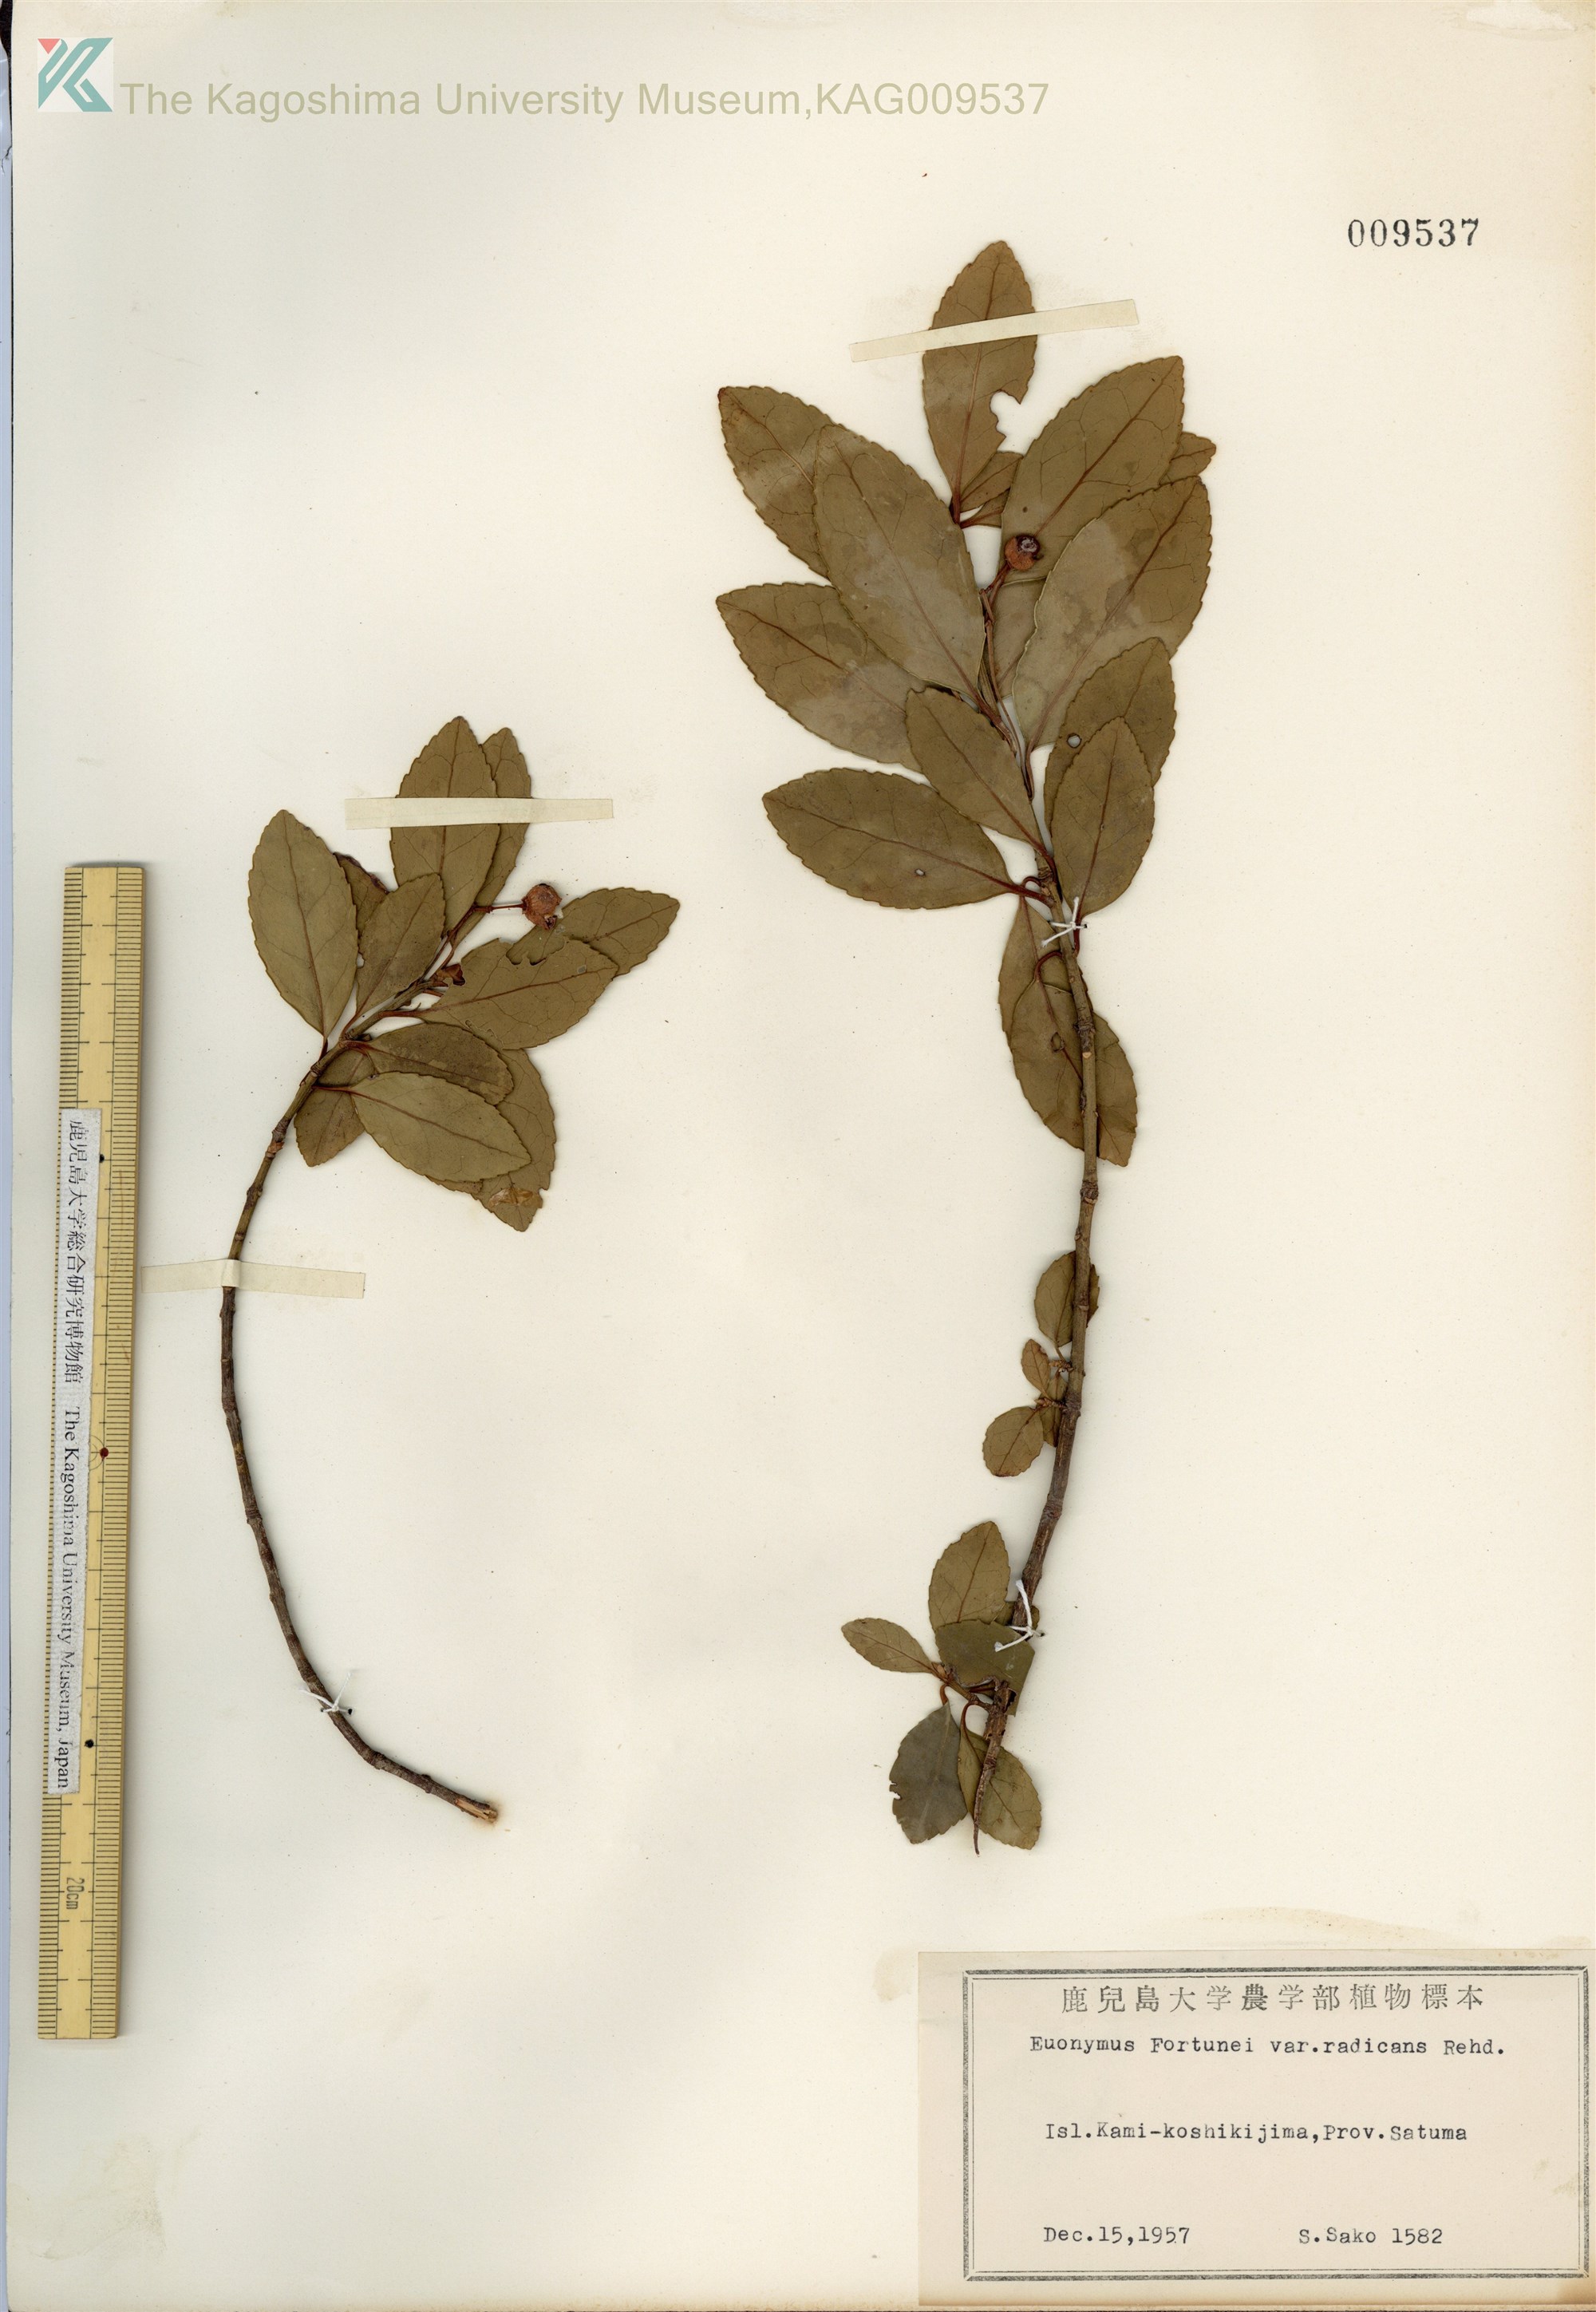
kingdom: Plantae
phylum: Tracheophyta
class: Magnoliopsida
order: Celastrales
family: Celastraceae
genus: Euonymus
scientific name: Euonymus fortunei
